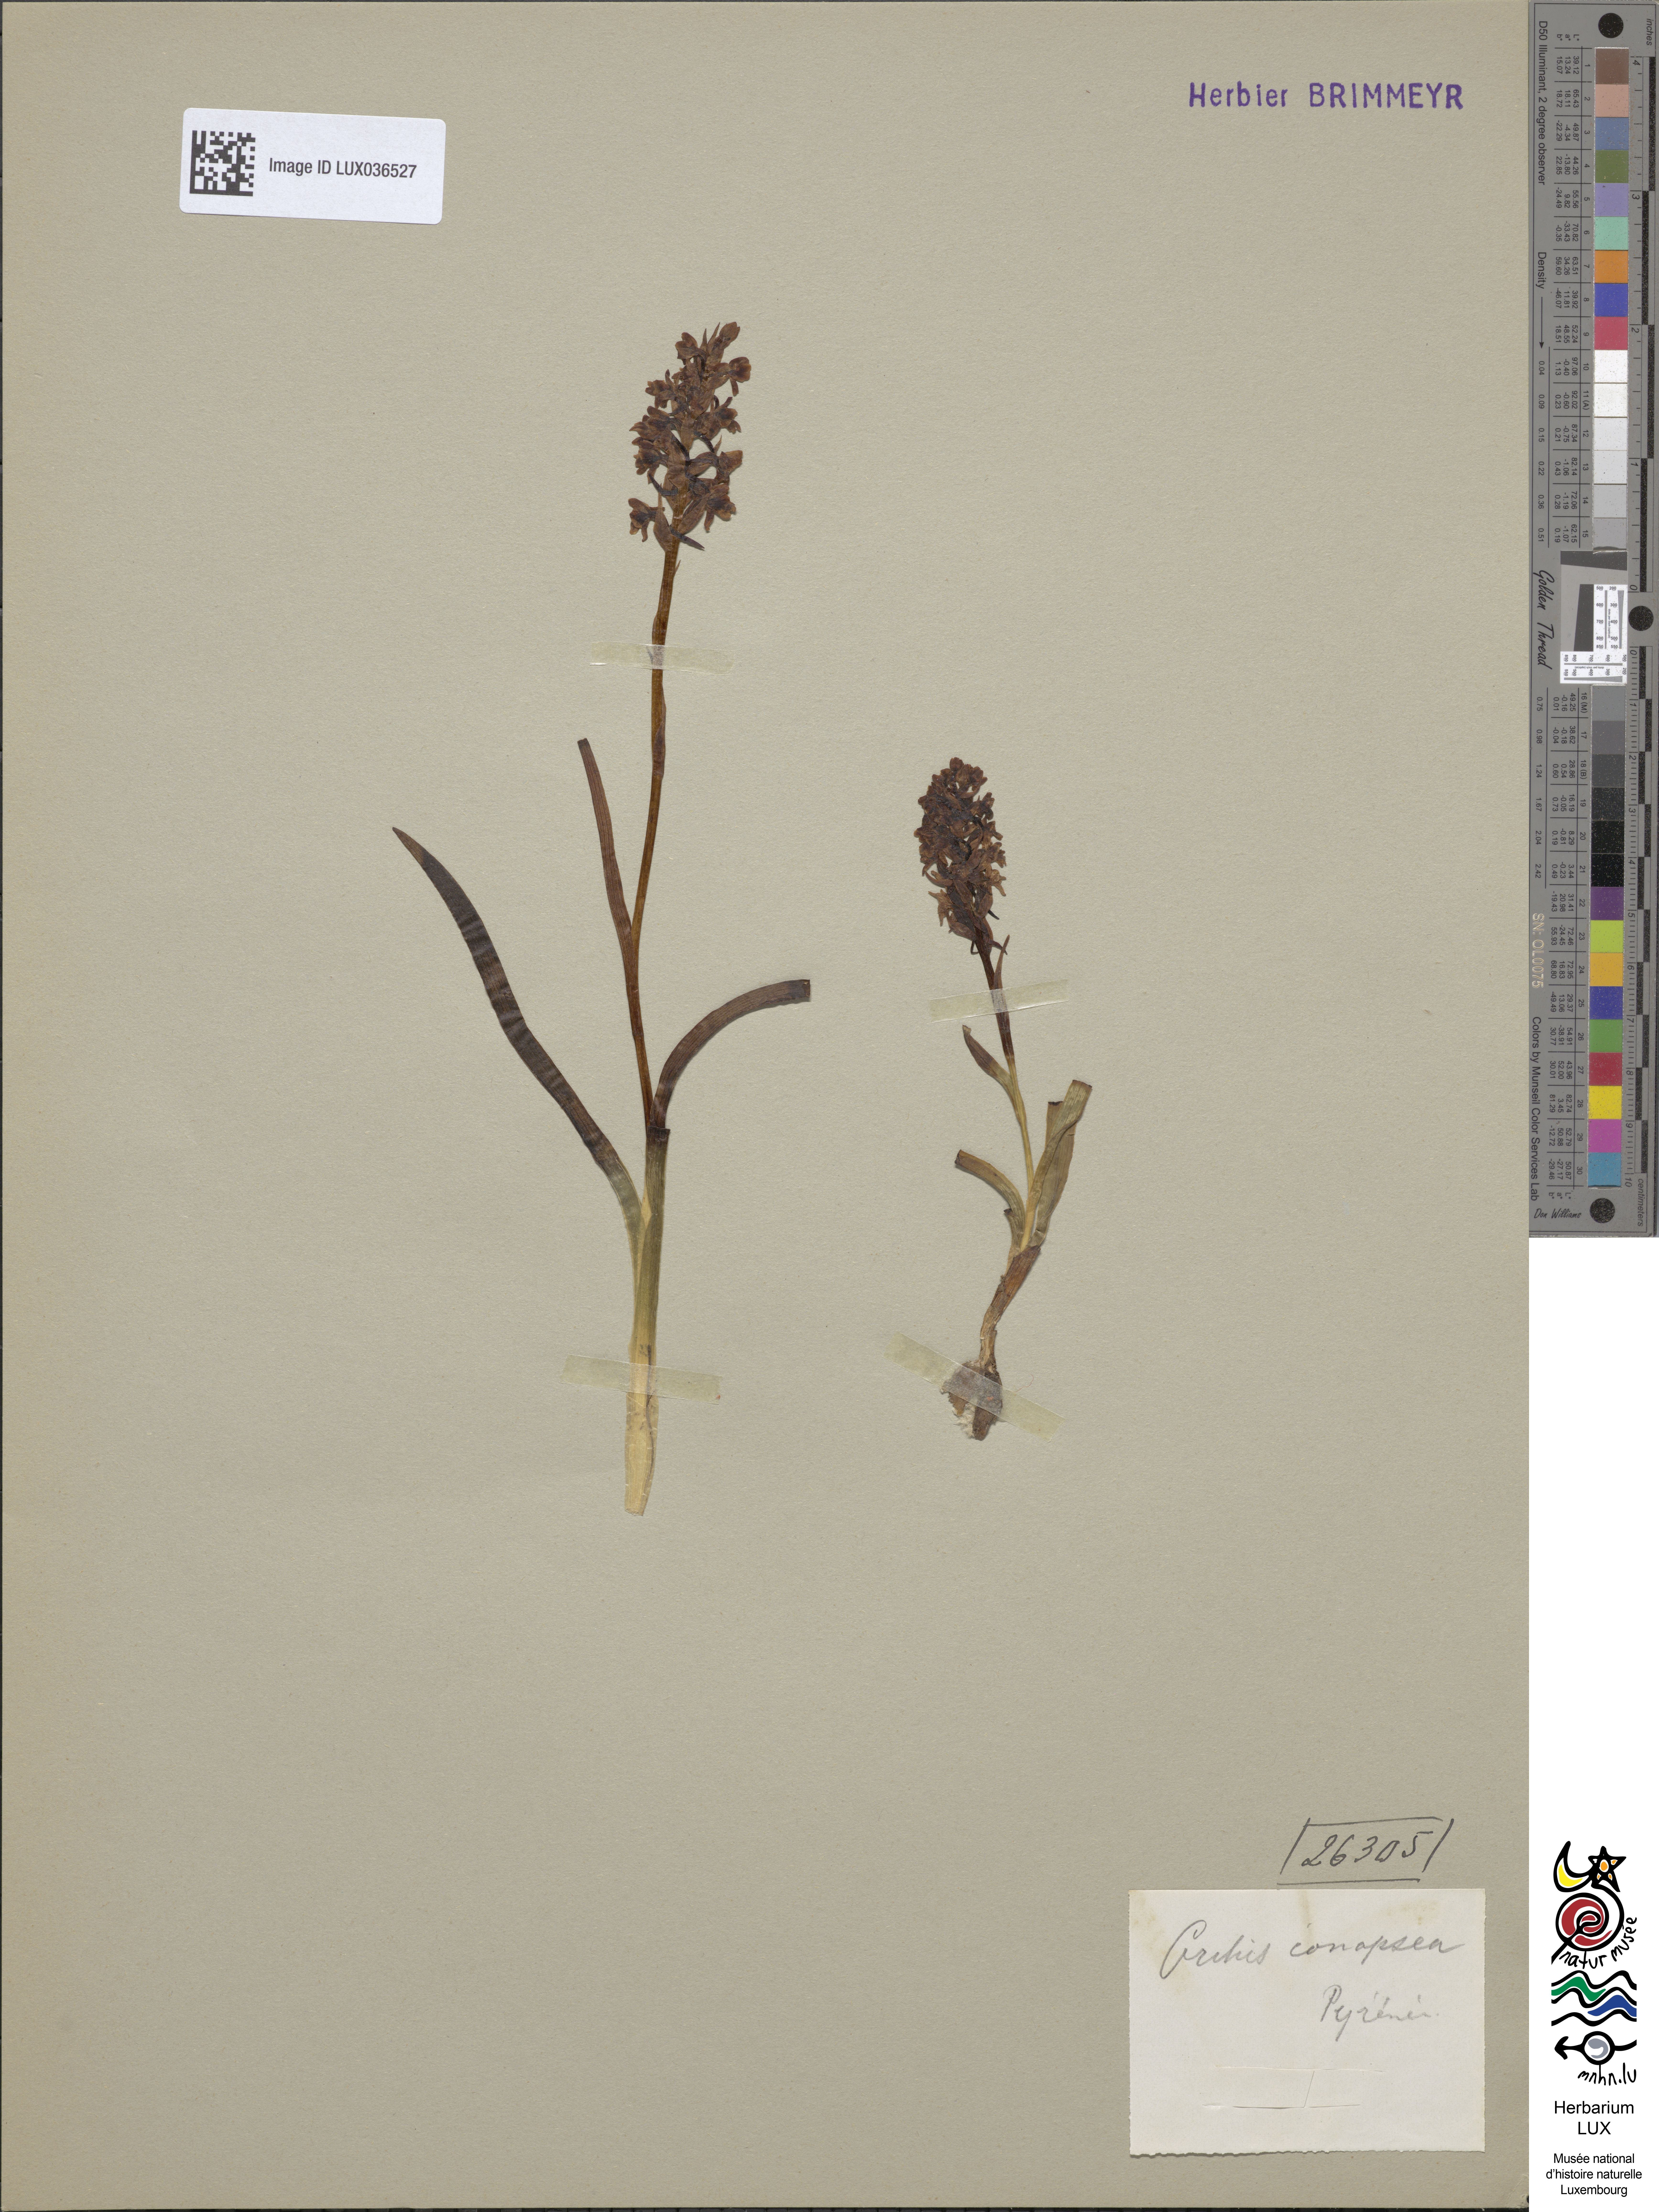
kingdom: Plantae
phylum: Tracheophyta
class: Liliopsida
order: Asparagales
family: Orchidaceae
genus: Gymnadenia
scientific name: Gymnadenia conopsea
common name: Fragrant orchid
